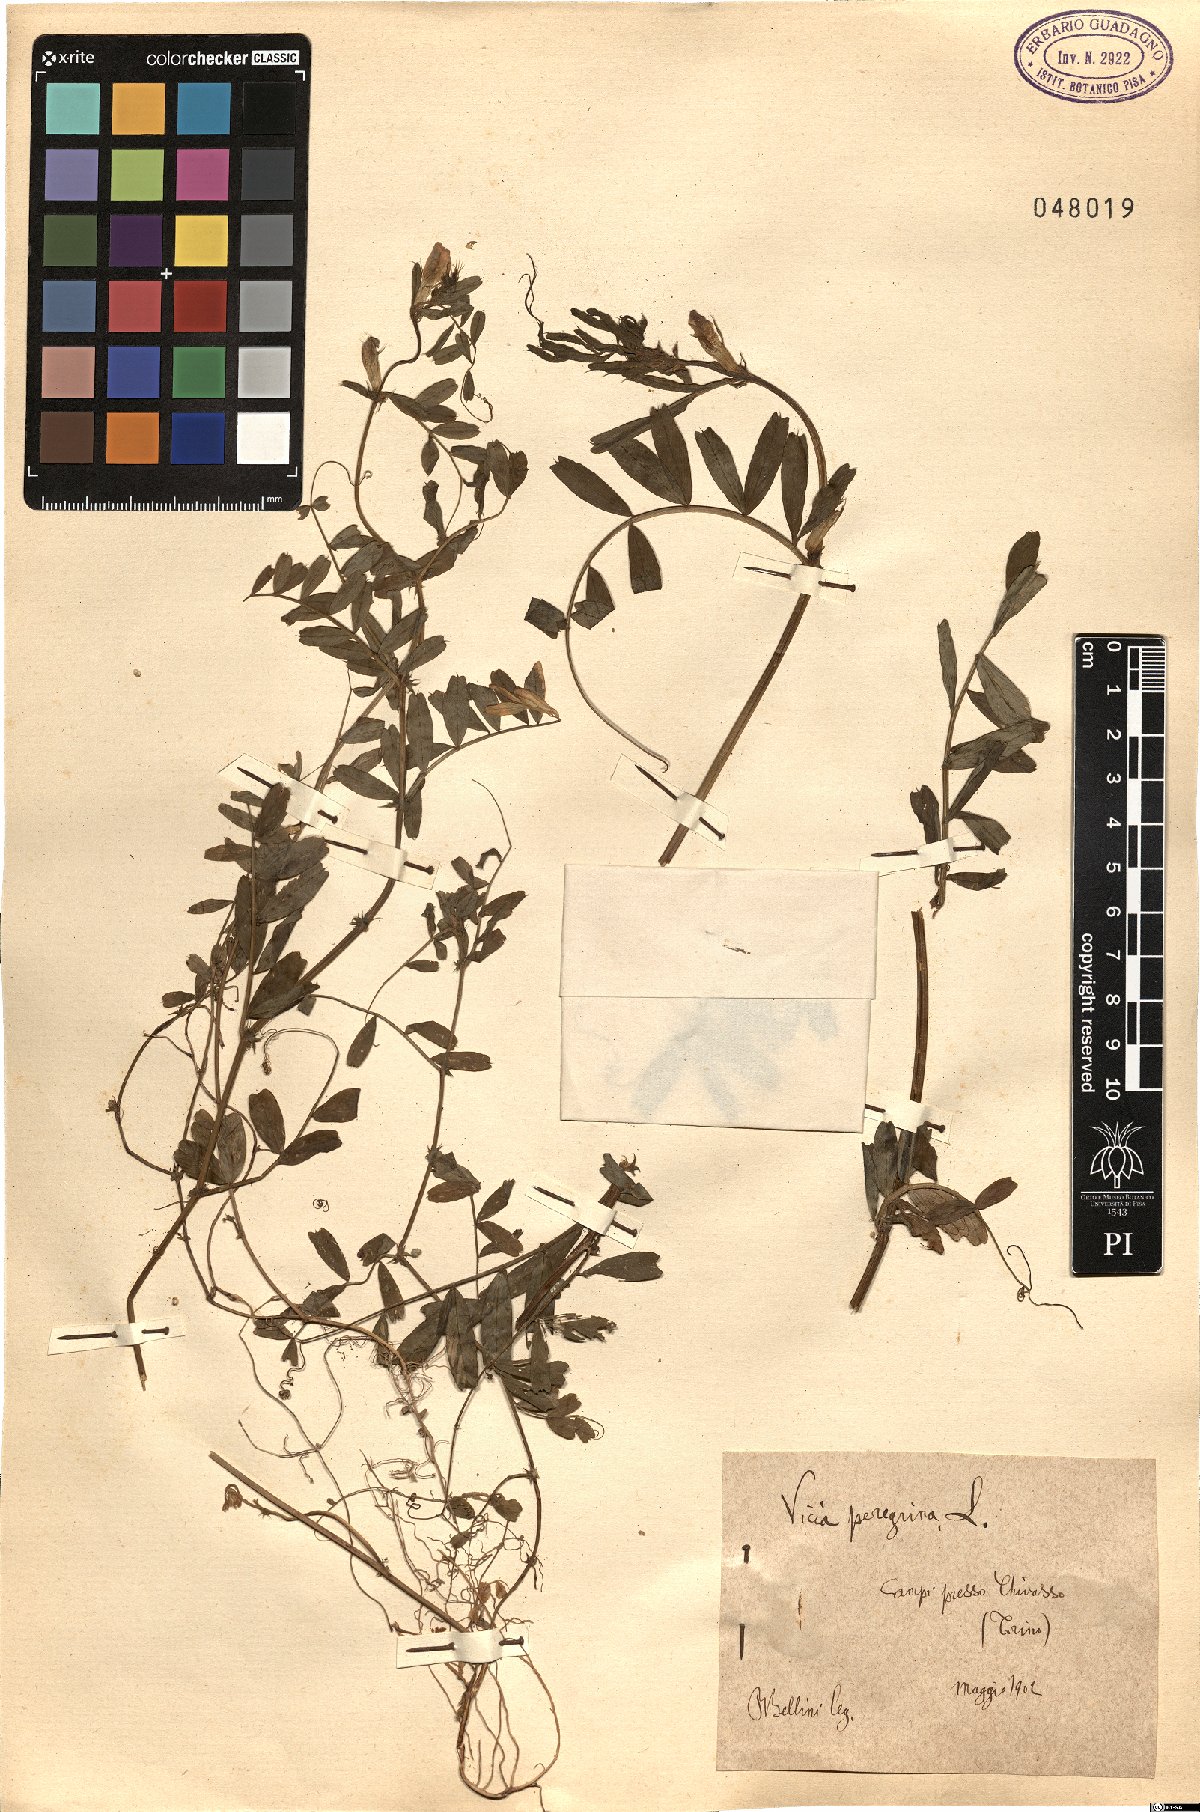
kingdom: Plantae
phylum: Tracheophyta
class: Magnoliopsida
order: Fabales
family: Fabaceae
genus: Vicia
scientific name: Vicia peregrina
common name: Broad-pod vetch
